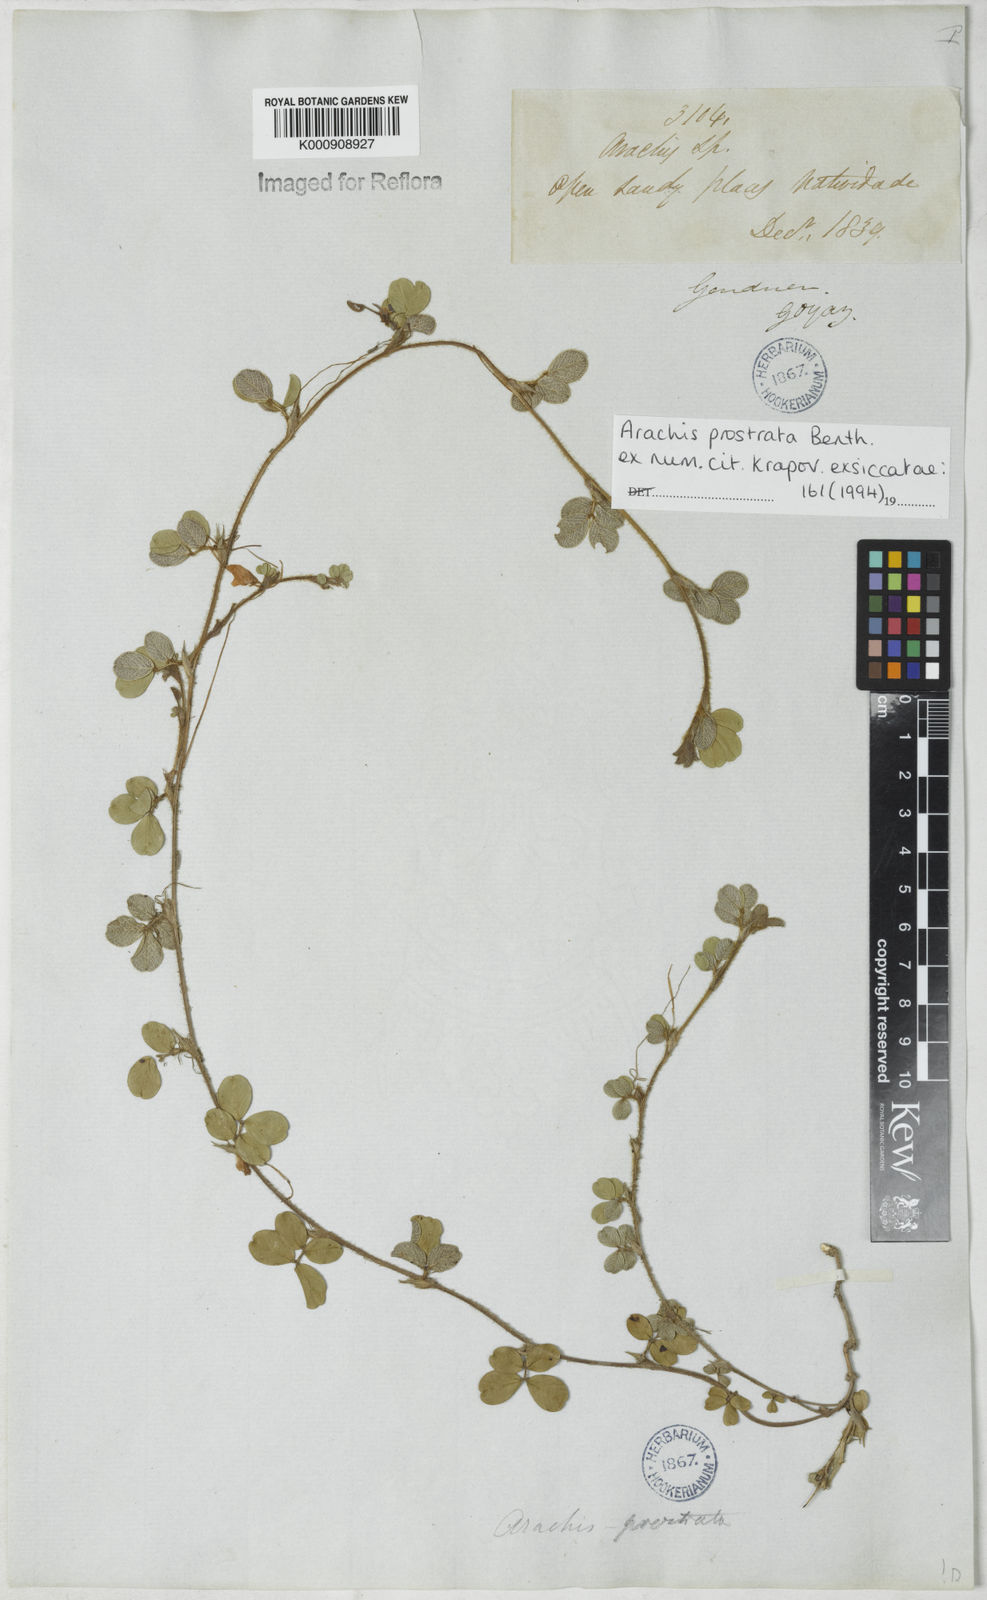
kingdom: Plantae
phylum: Tracheophyta
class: Magnoliopsida
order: Fabales
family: Fabaceae
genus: Arachis
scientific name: Arachis prostrata
